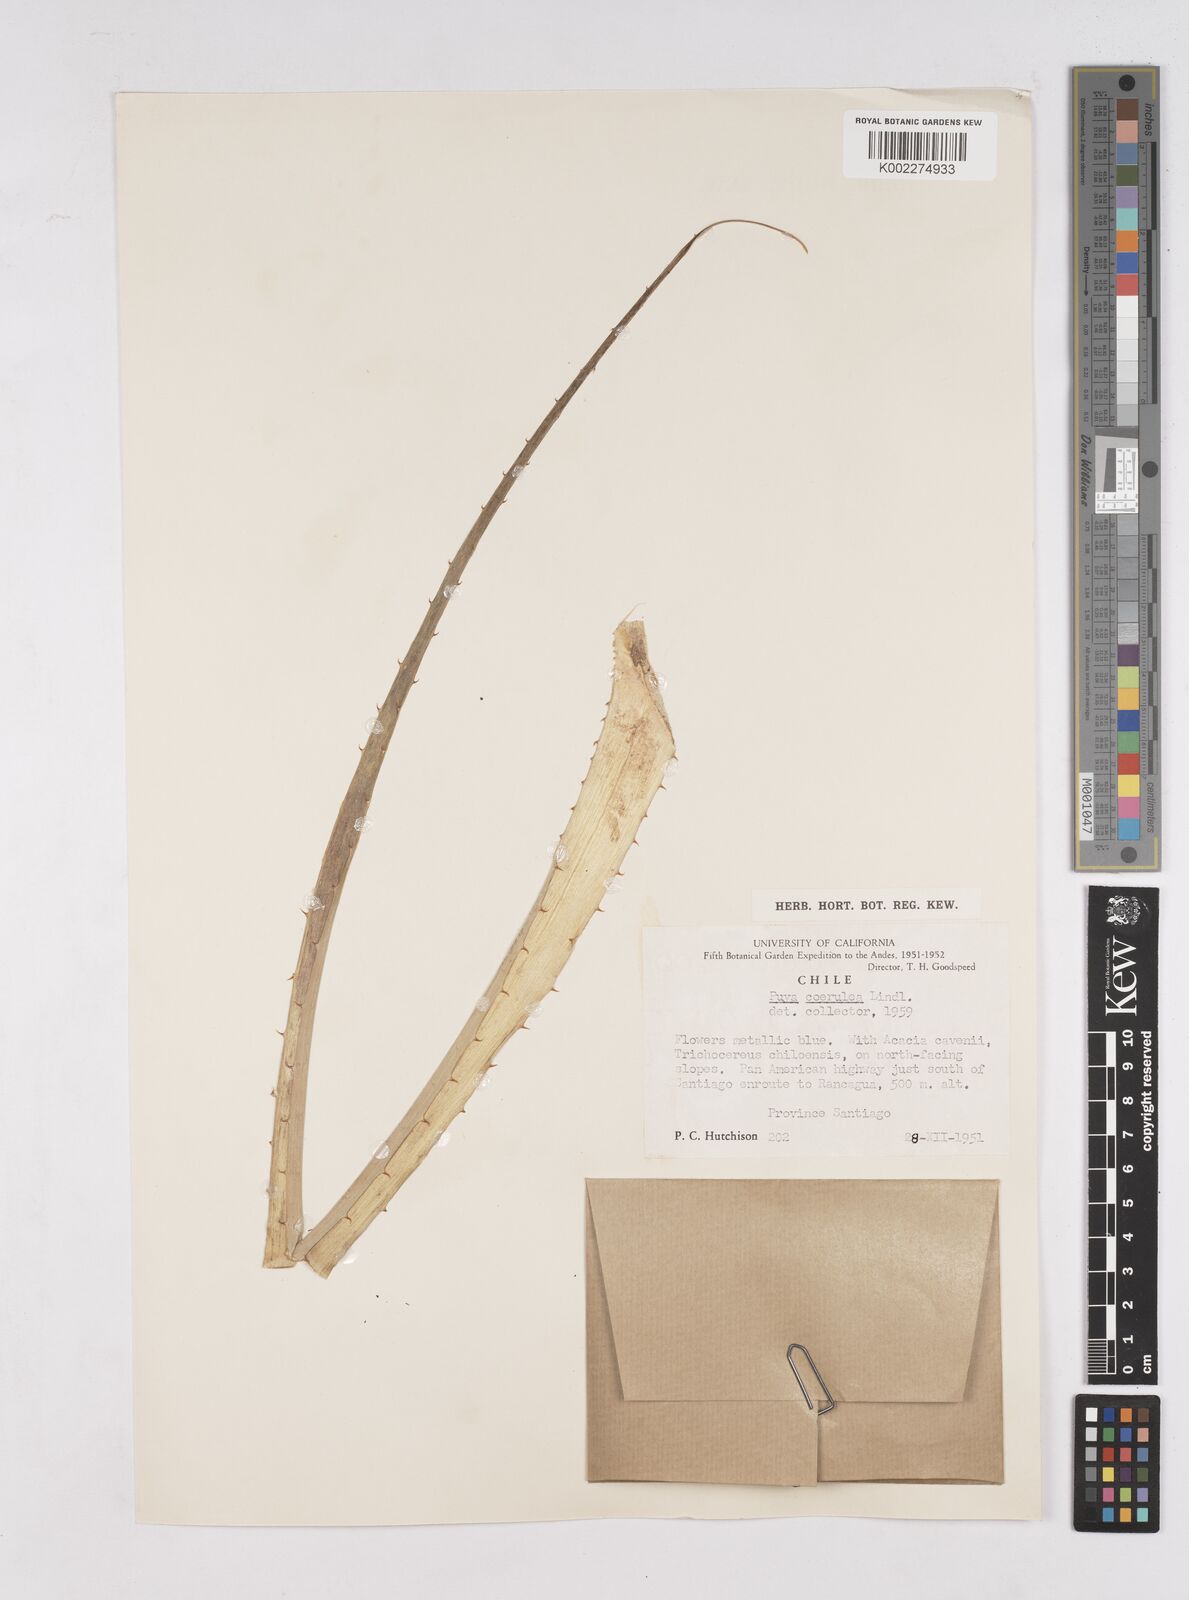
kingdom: Plantae
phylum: Tracheophyta
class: Liliopsida
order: Poales
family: Bromeliaceae
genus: Puya
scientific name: Puya coerulea
